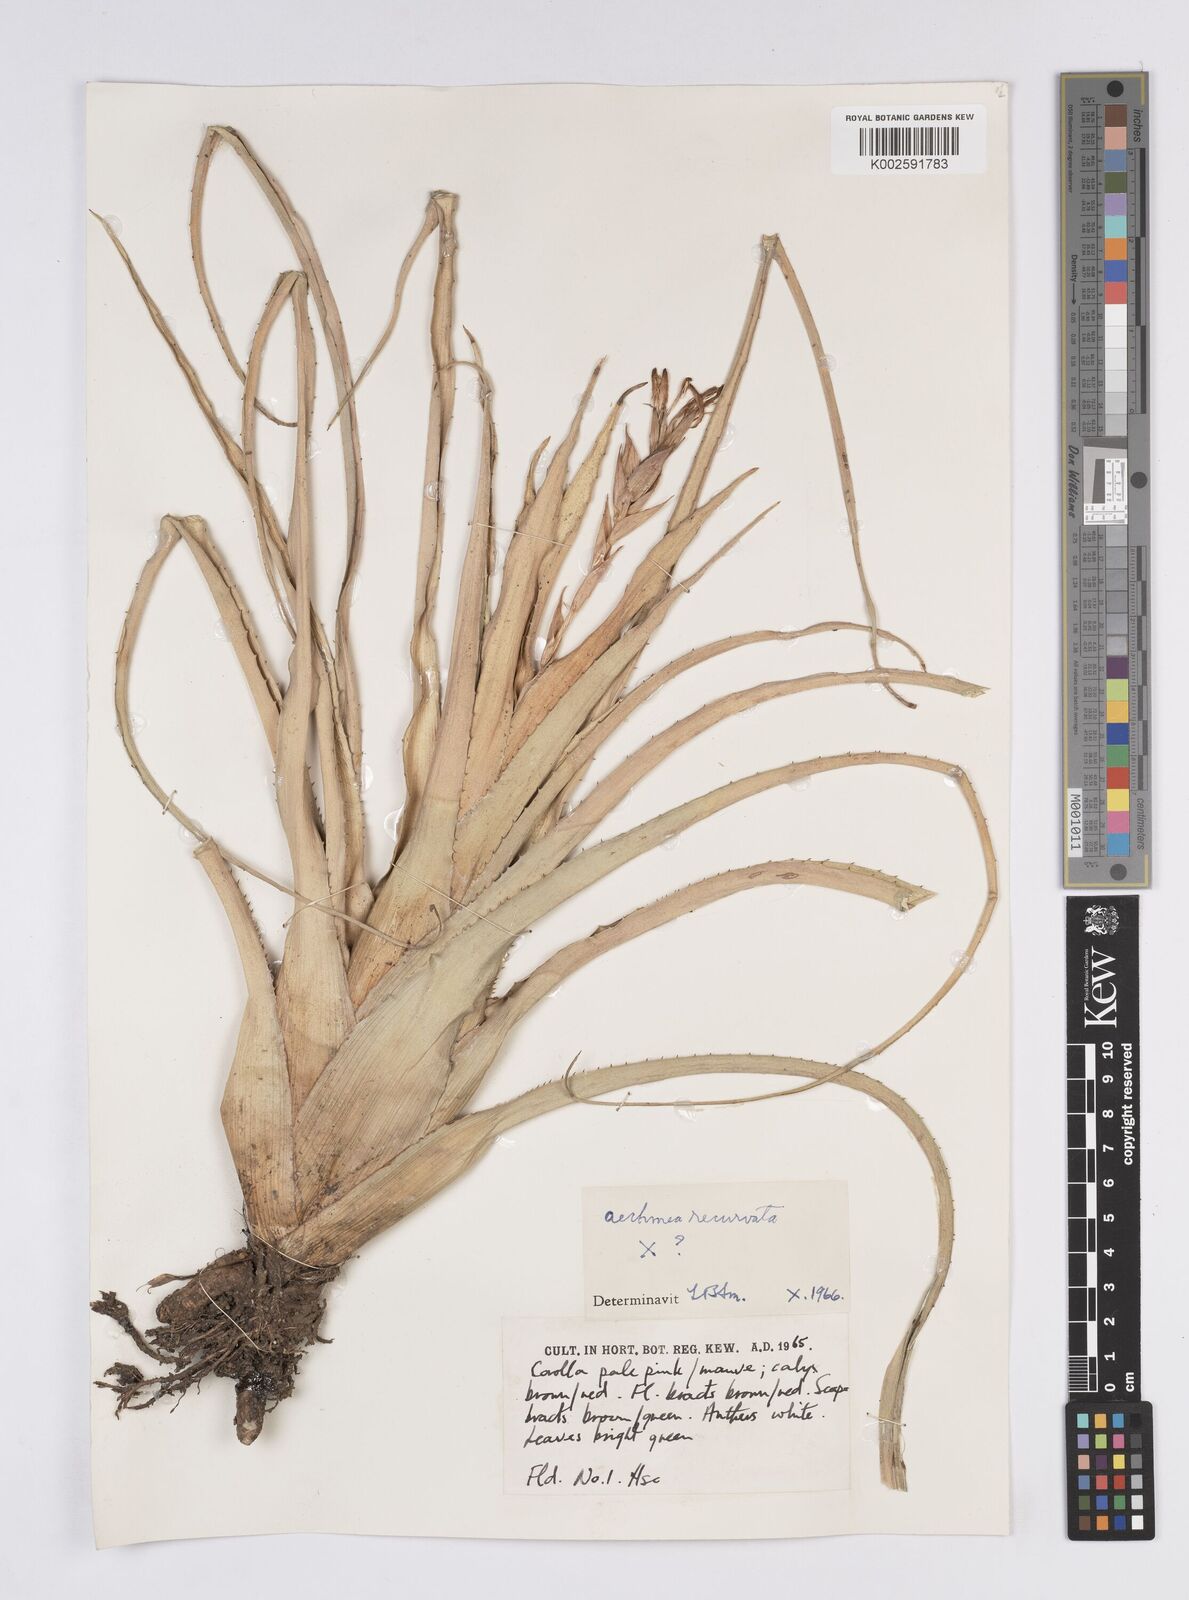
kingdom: Plantae
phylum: Tracheophyta
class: Liliopsida
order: Poales
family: Bromeliaceae
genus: Aechmea
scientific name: Aechmea recurvata
